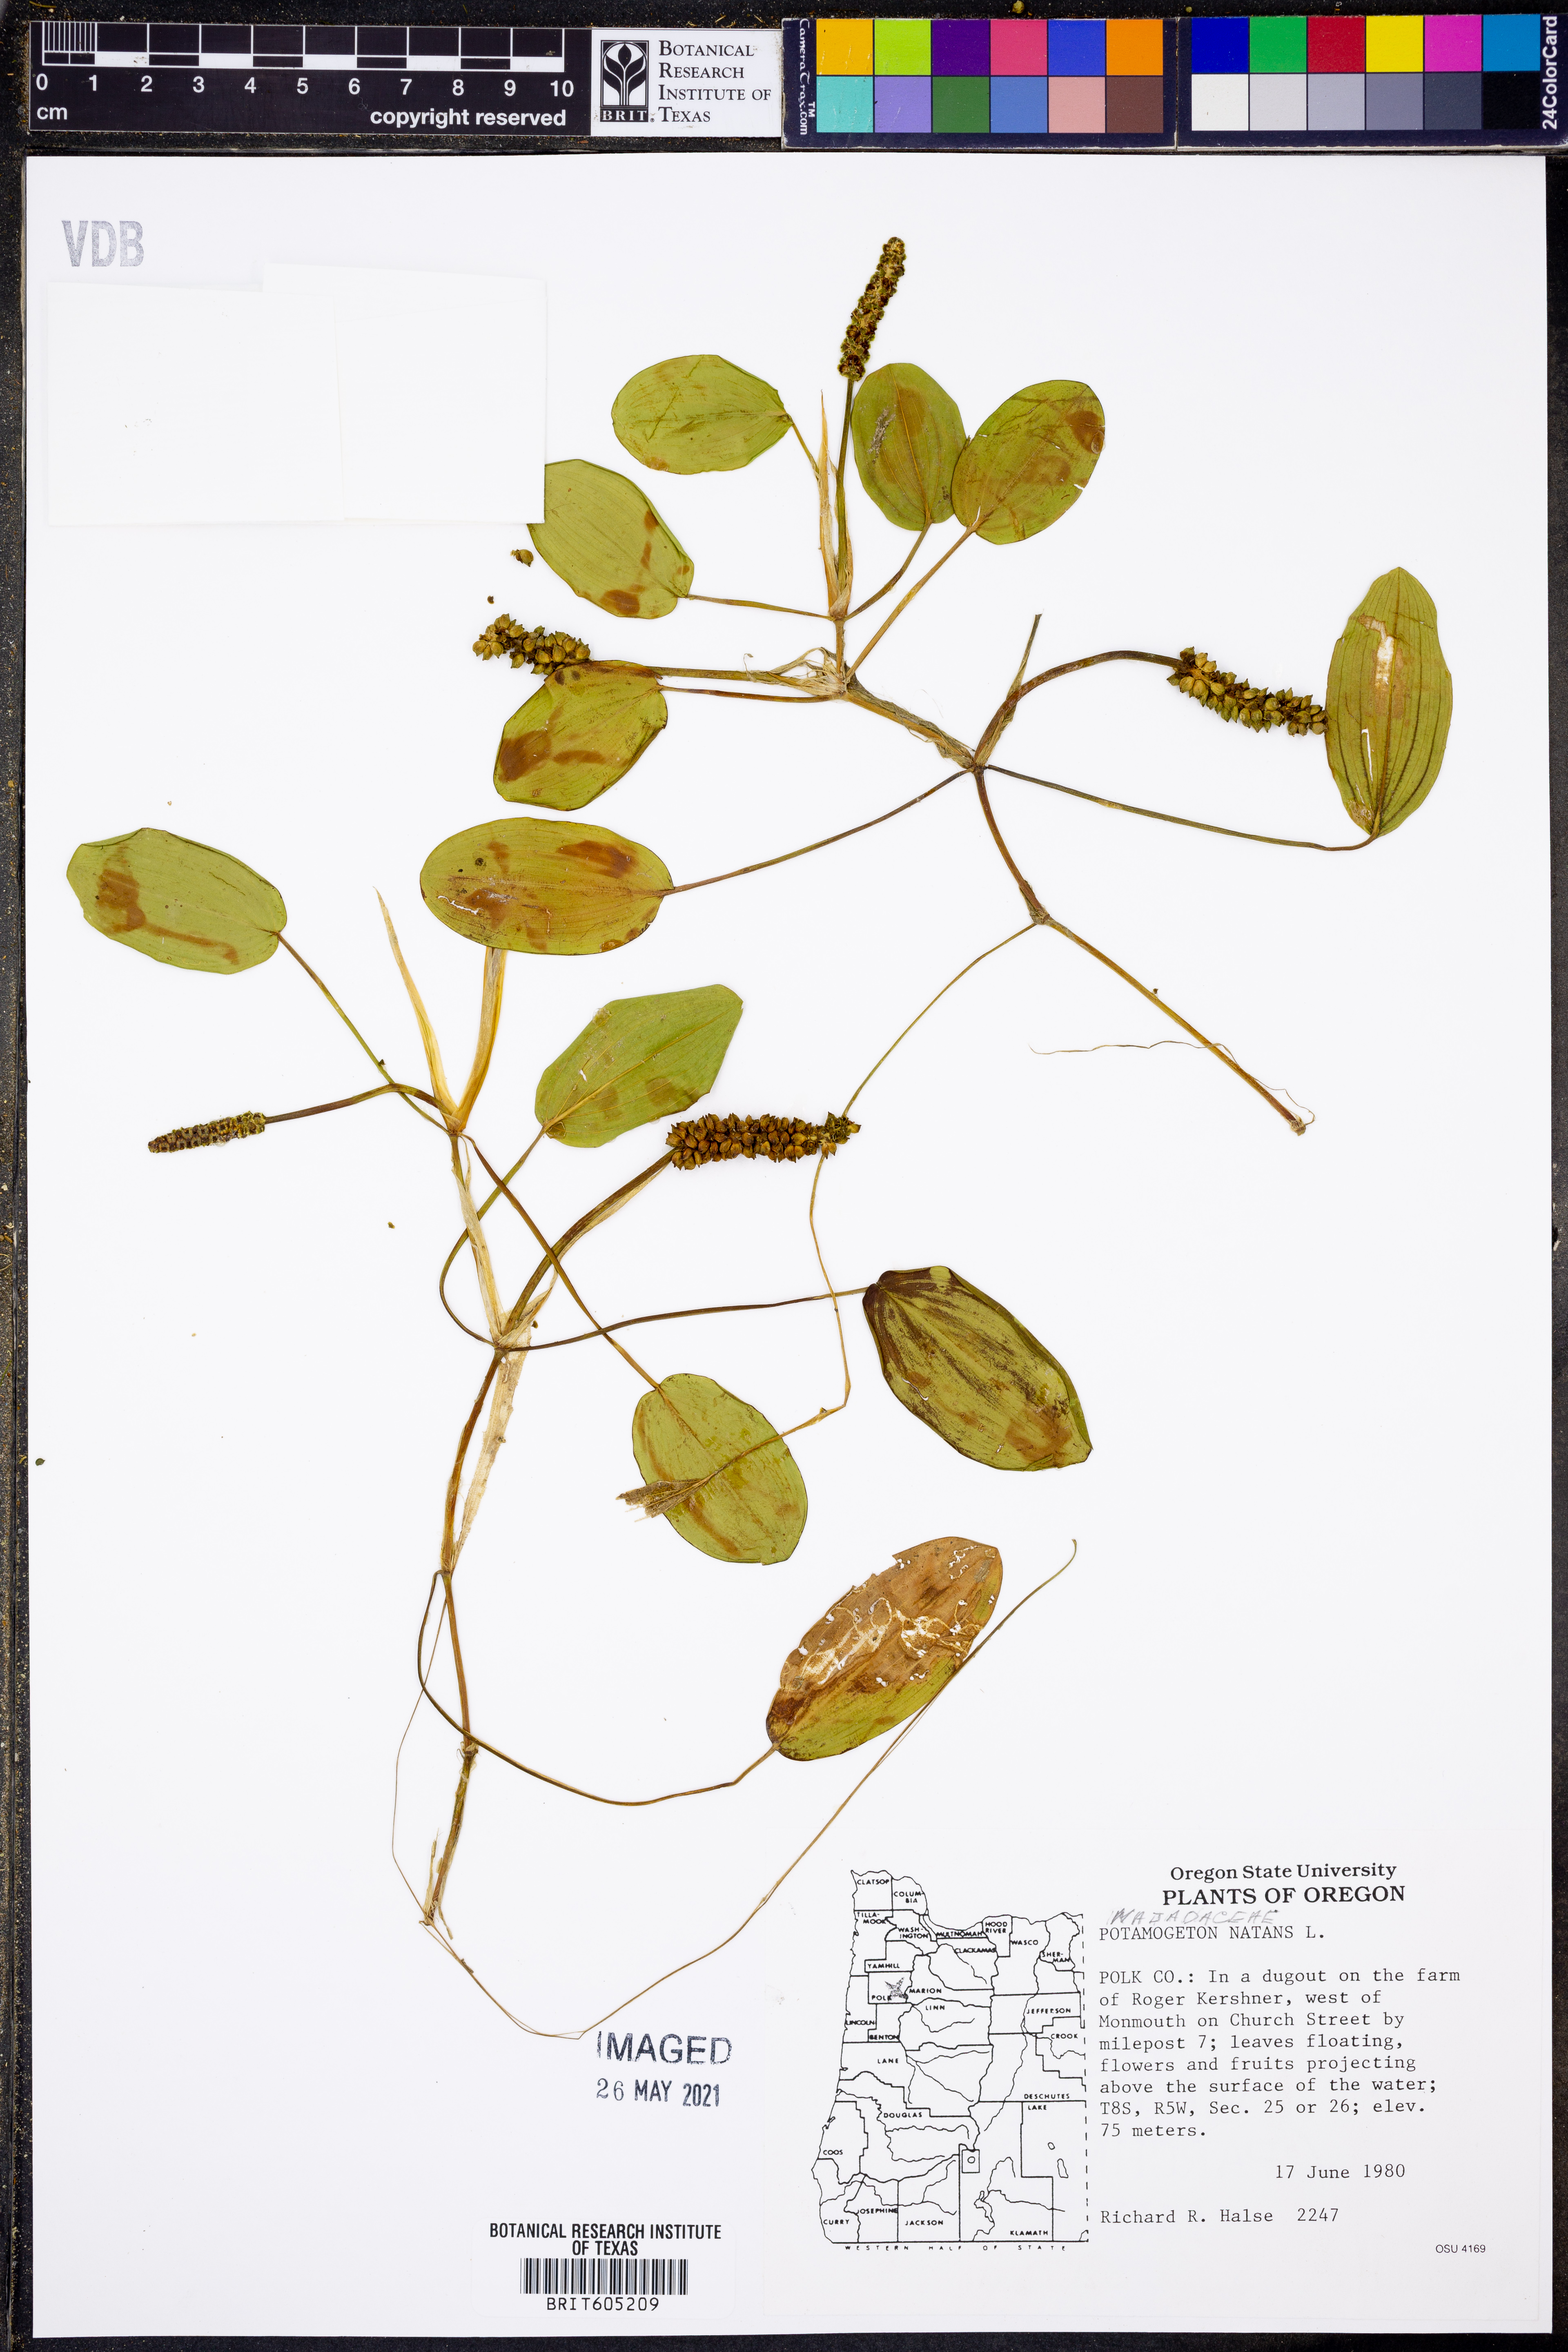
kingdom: Plantae
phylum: Tracheophyta
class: Liliopsida
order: Alismatales
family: Potamogetonaceae
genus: Potamogeton
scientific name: Potamogeton natans
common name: Broad-leaved pondweed
